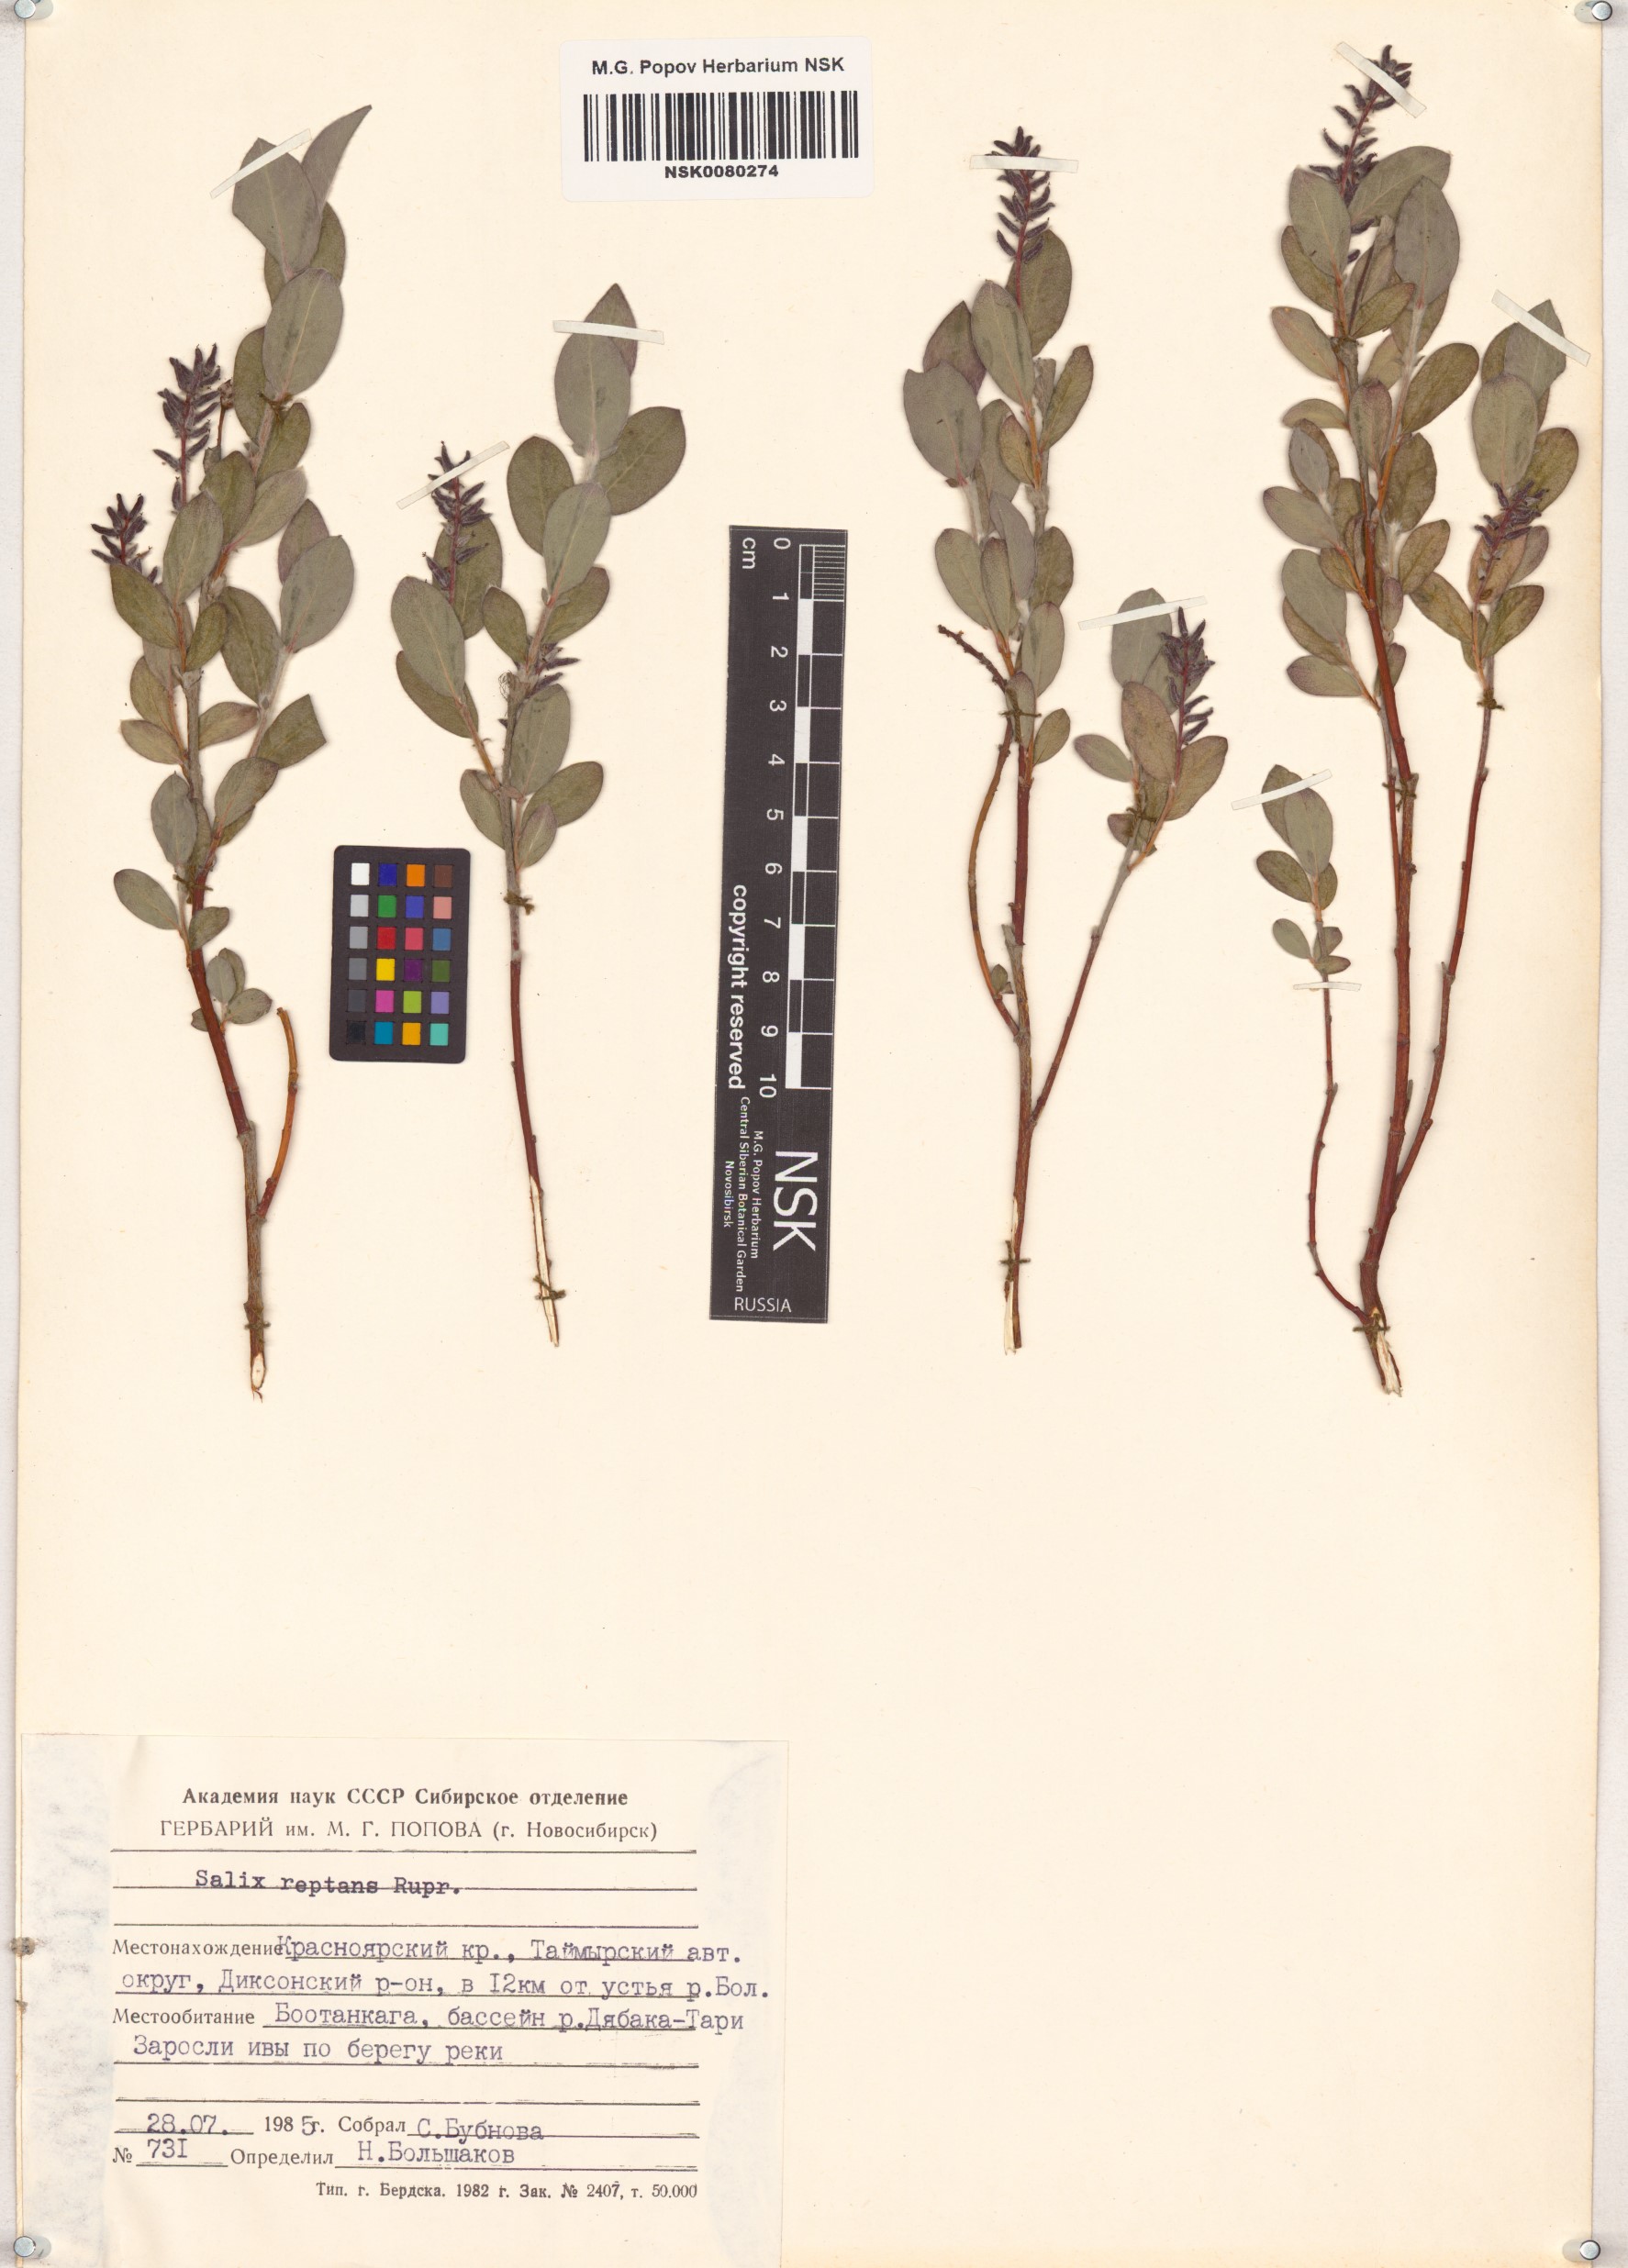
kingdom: Plantae
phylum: Tracheophyta
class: Magnoliopsida
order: Malpighiales
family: Salicaceae
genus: Salix
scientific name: Salix reptans
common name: Arctic creeping willow
